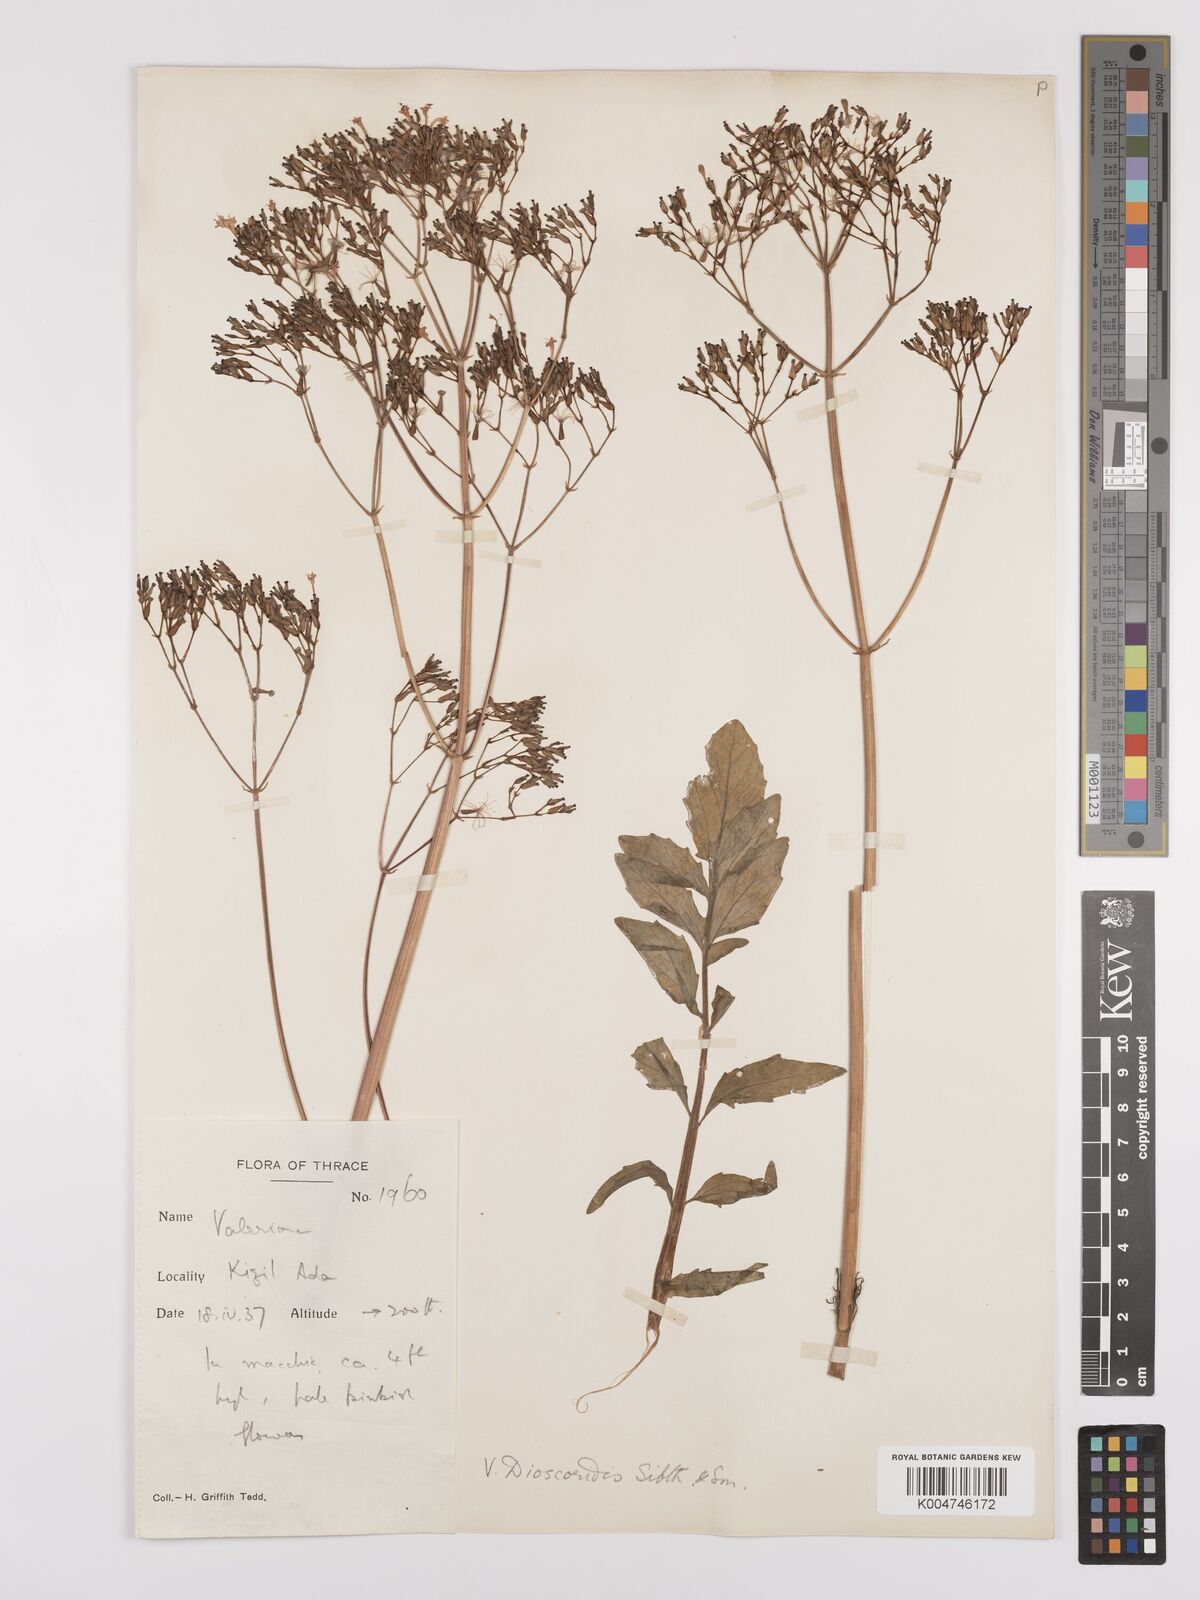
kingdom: Plantae
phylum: Tracheophyta
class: Magnoliopsida
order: Dipsacales
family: Caprifoliaceae
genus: Valeriana
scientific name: Valeriana dioscoridis
